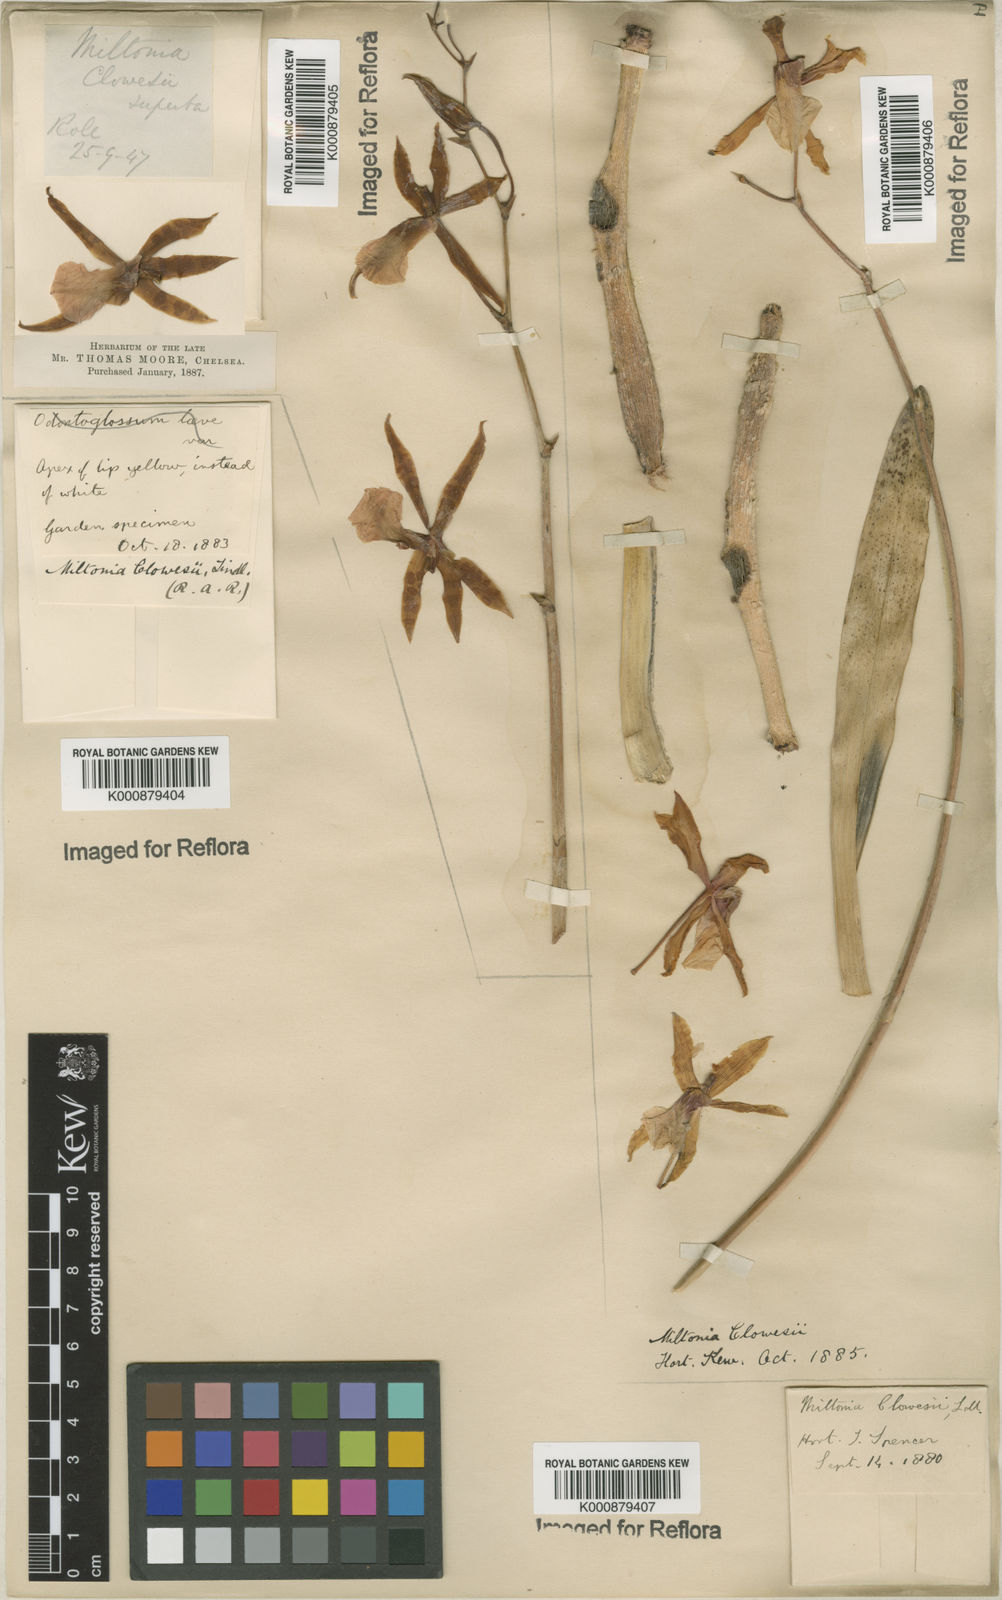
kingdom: Plantae
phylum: Tracheophyta
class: Liliopsida
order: Asparagales
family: Orchidaceae
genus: Miltonia
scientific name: Miltonia clowesii
